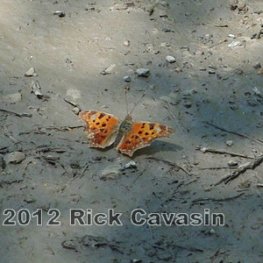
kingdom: Animalia
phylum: Arthropoda
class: Insecta
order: Lepidoptera
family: Nymphalidae
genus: Polygonia
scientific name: Polygonia comma
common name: Eastern Comma
